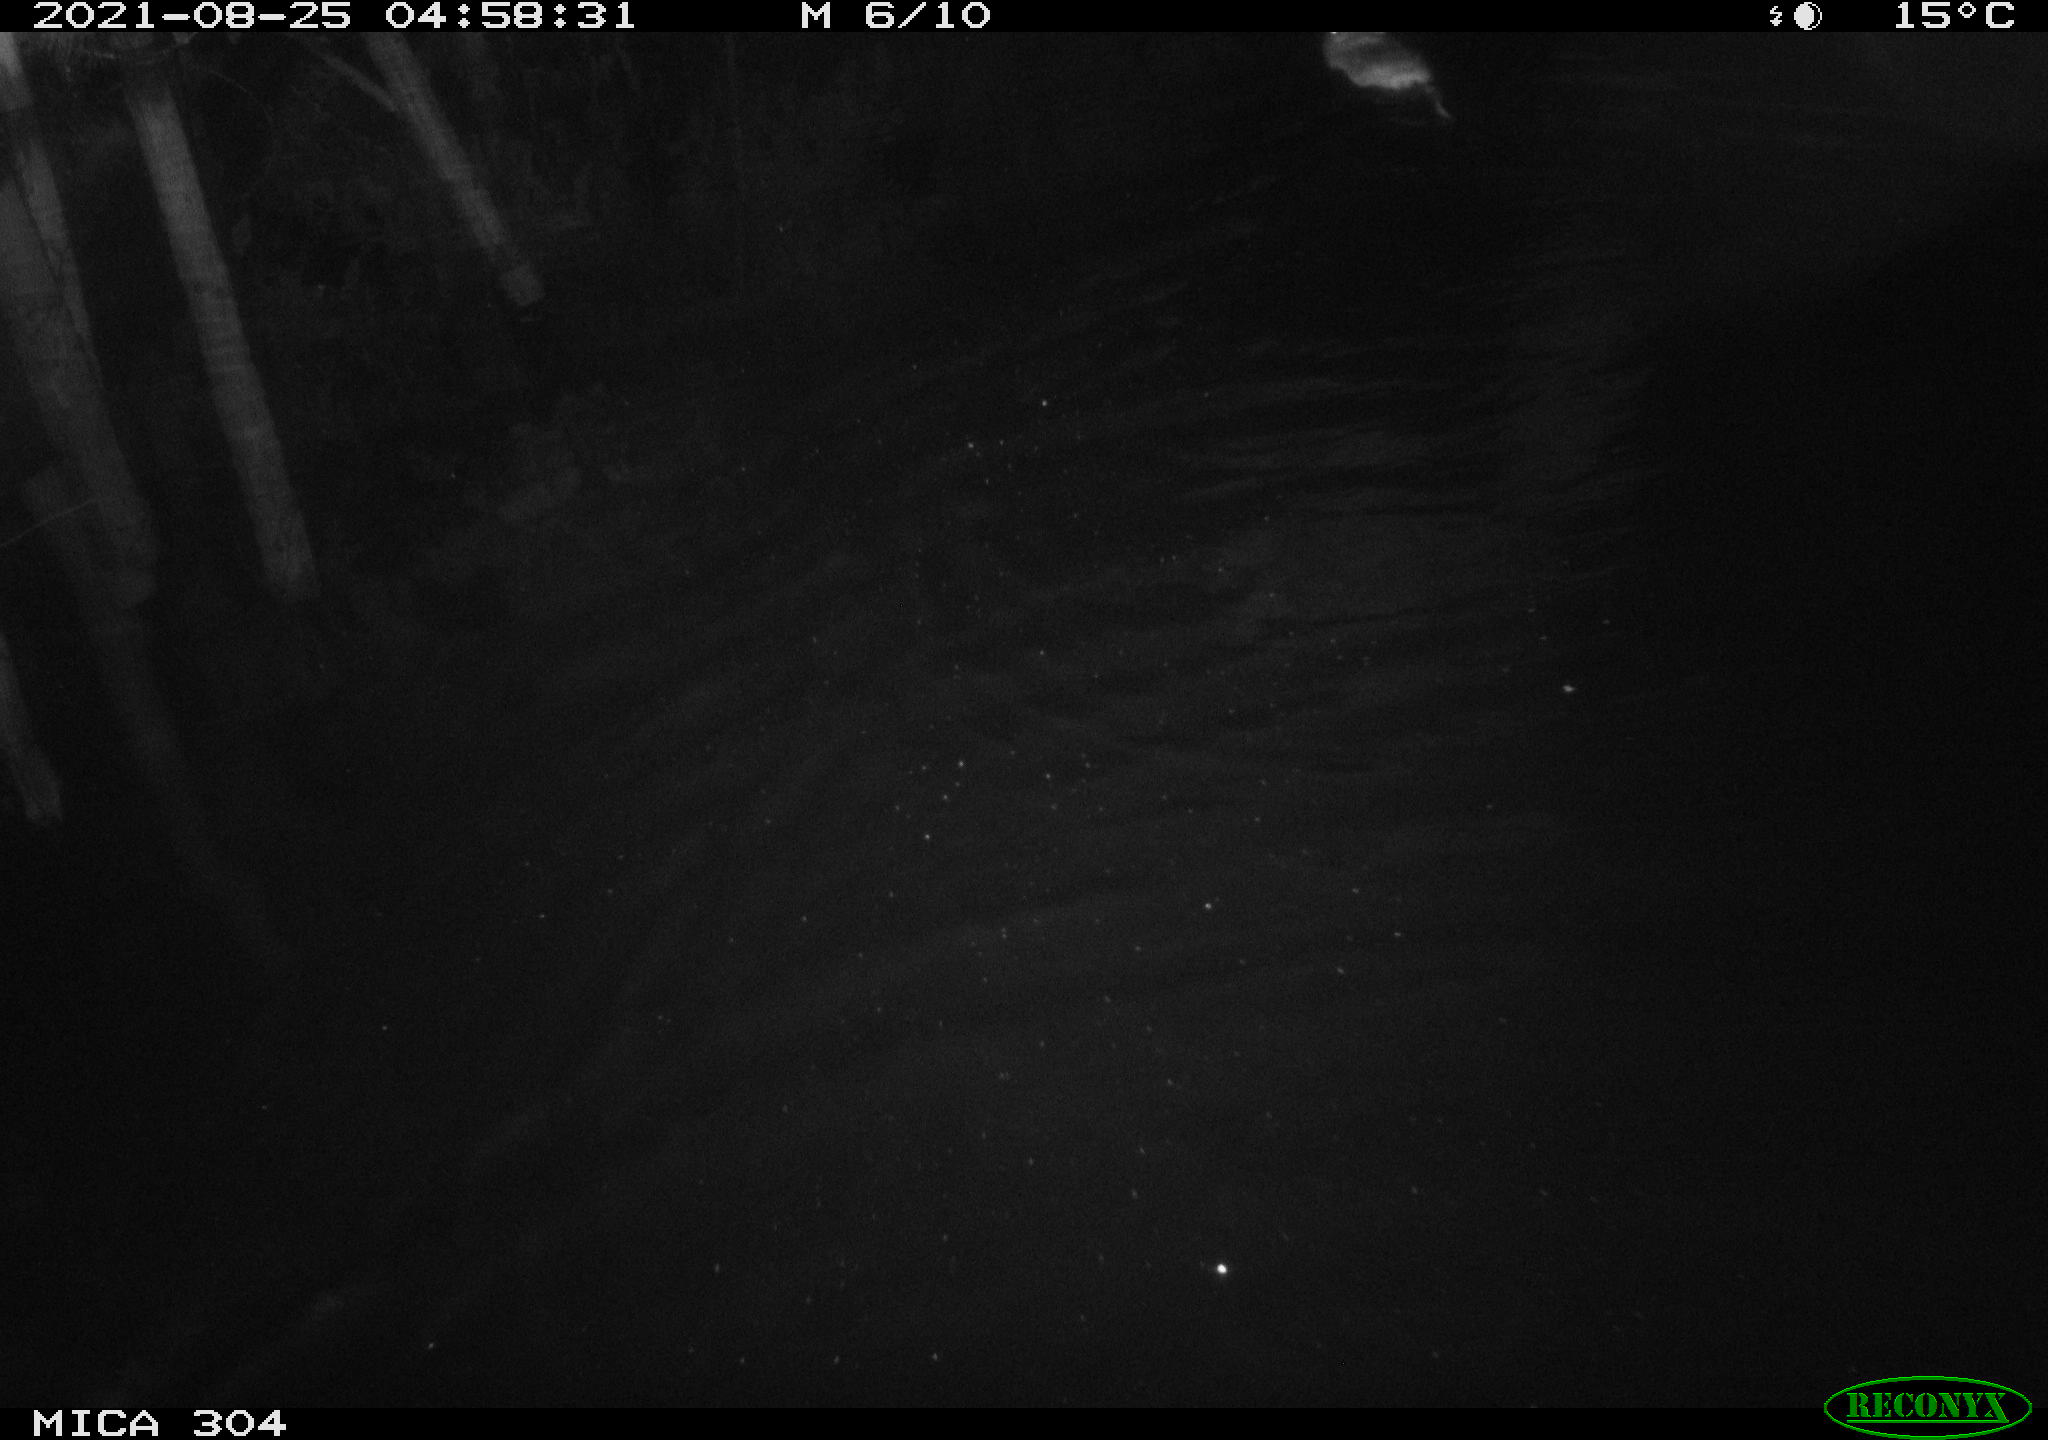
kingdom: Animalia
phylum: Chordata
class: Mammalia
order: Rodentia
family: Cricetidae
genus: Ondatra
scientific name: Ondatra zibethicus
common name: Muskrat
